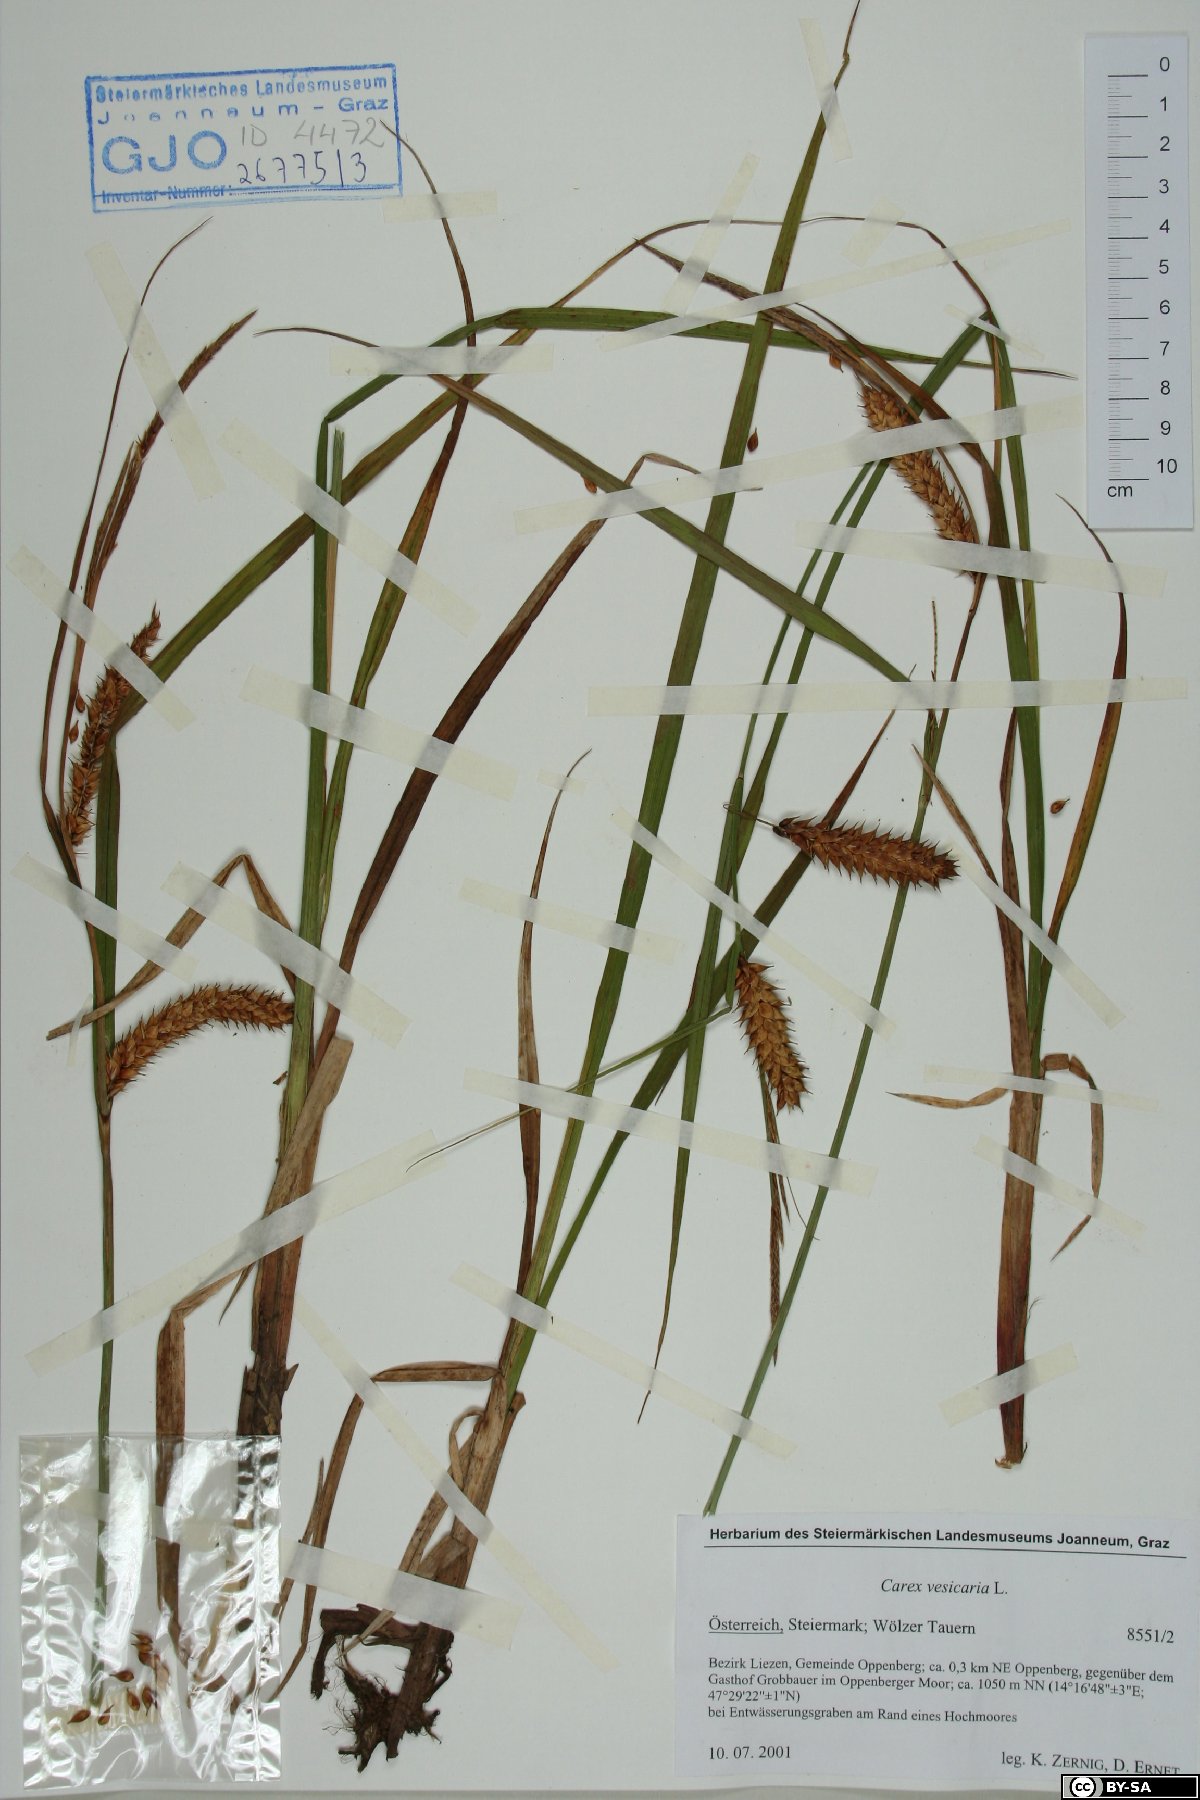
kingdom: Plantae
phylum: Tracheophyta
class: Liliopsida
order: Poales
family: Cyperaceae
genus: Carex
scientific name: Carex vesicaria
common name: Bladder-sedge
